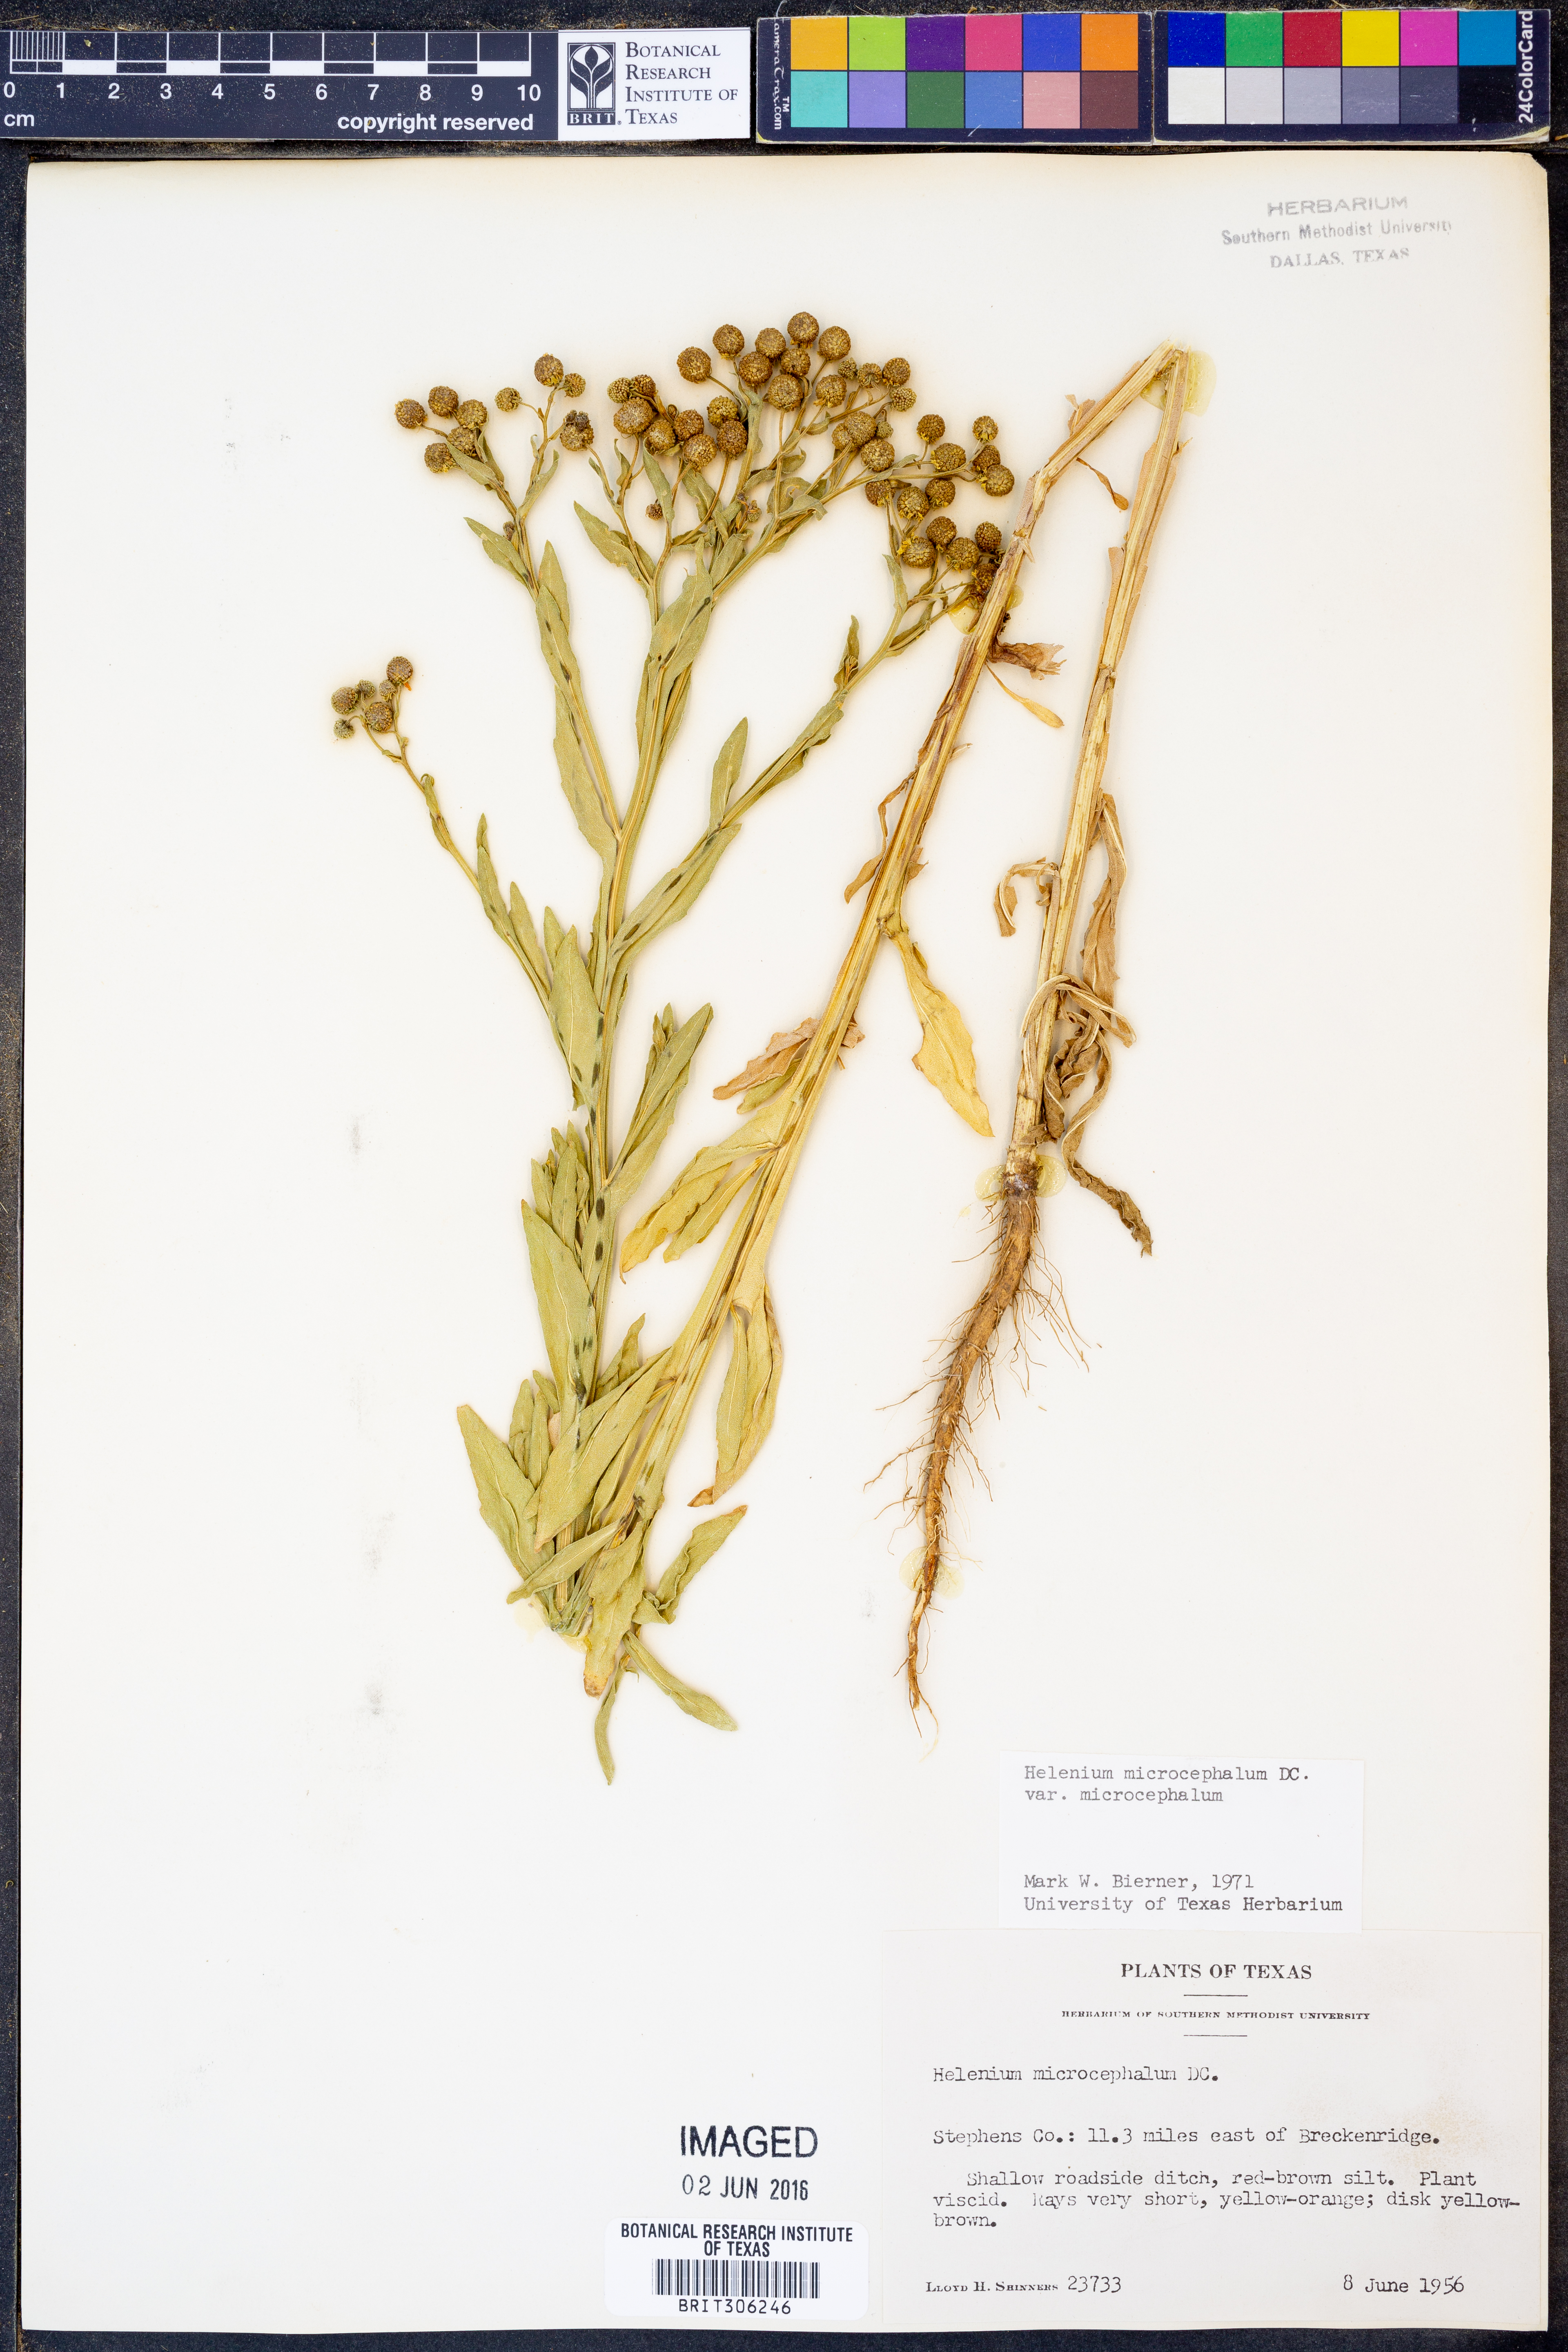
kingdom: Plantae
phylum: Tracheophyta
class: Magnoliopsida
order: Asterales
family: Asteraceae
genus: Helenium
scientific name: Helenium microcephalum
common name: Smallhead sneezeweed
